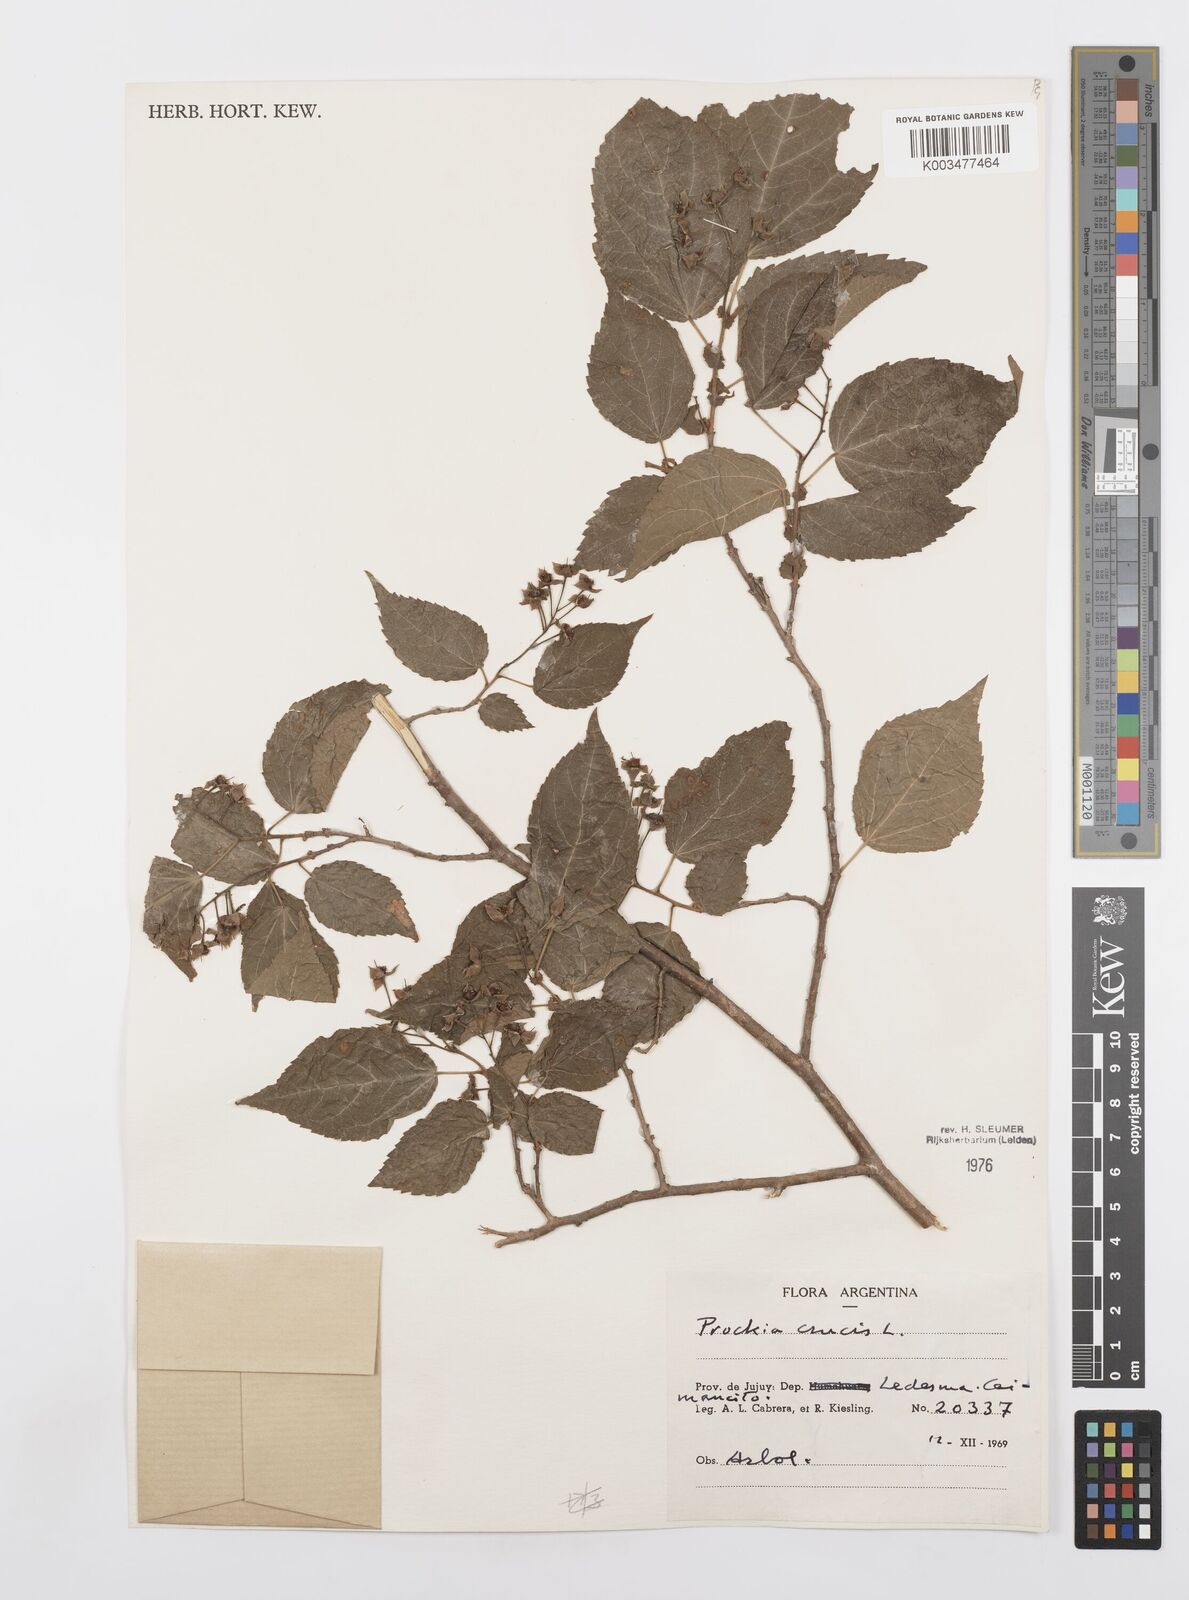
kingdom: Plantae
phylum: Tracheophyta
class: Magnoliopsida
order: Malpighiales
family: Salicaceae
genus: Prockia
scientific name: Prockia crucis
